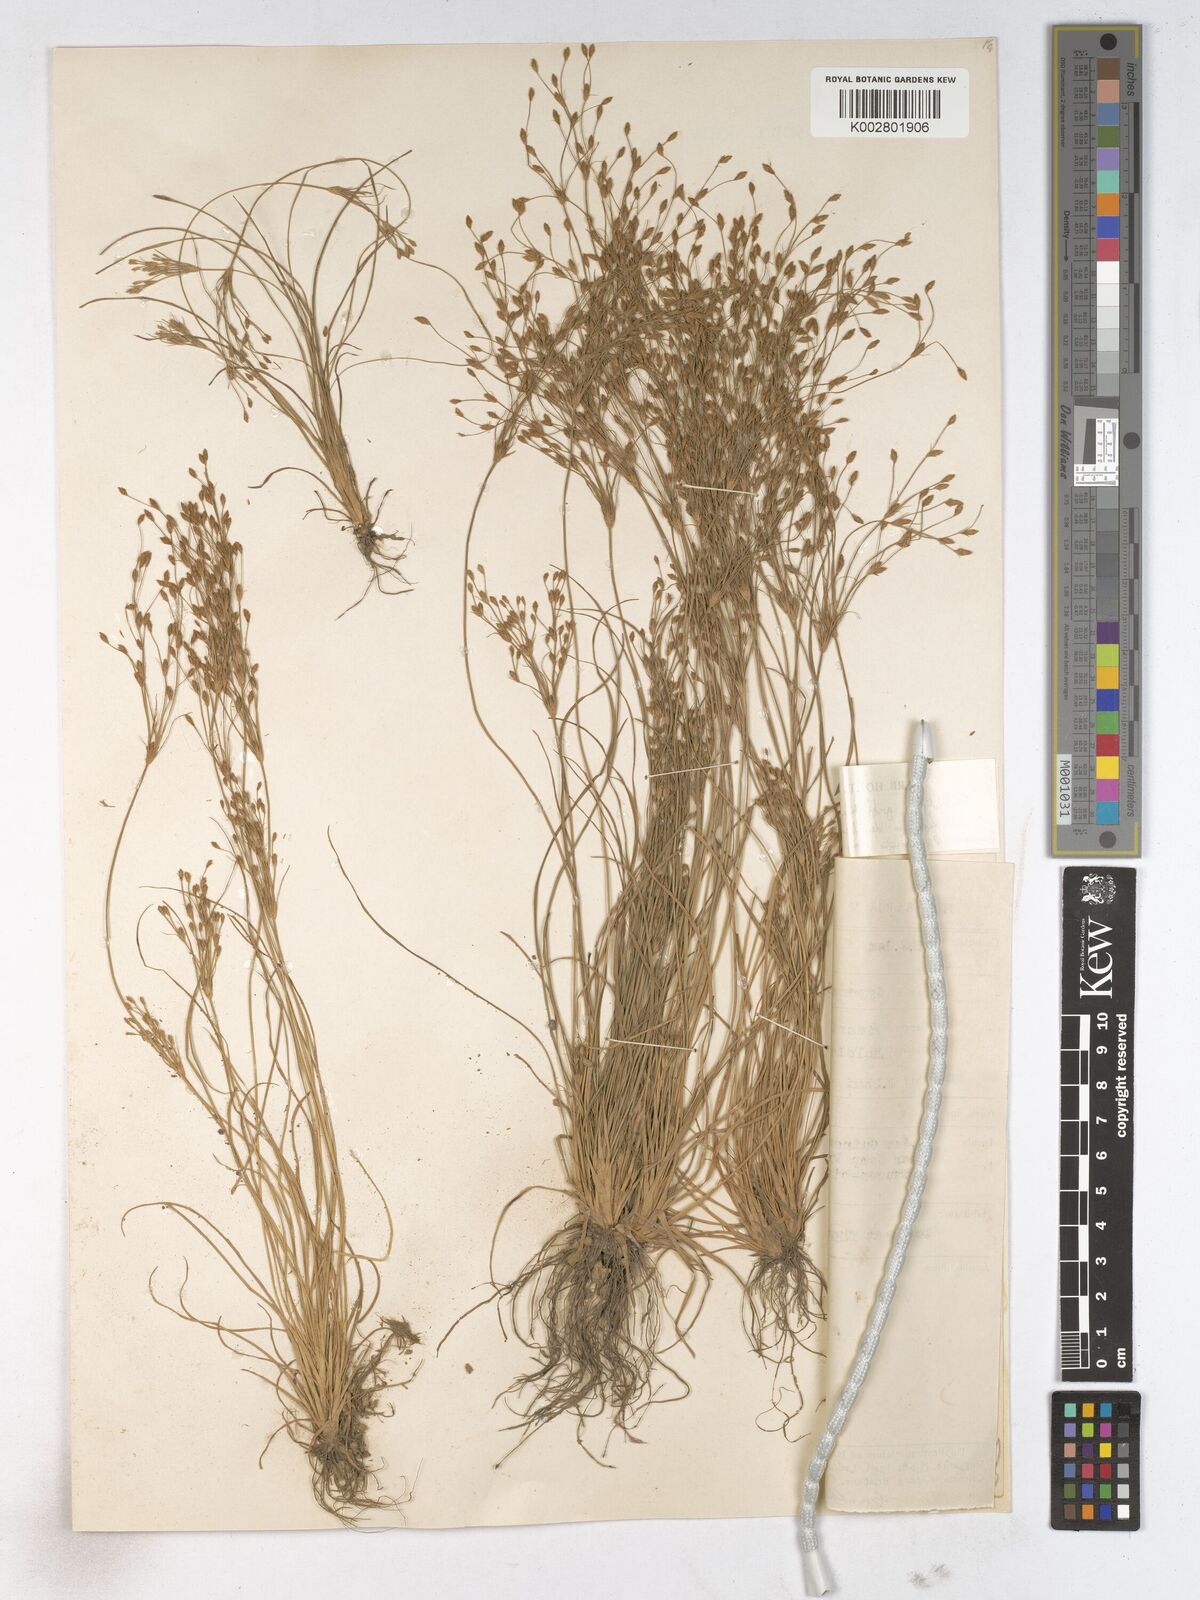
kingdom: Plantae
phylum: Tracheophyta
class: Liliopsida
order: Poales
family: Cyperaceae
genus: Fimbristylis
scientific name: Fimbristylis griffithii
